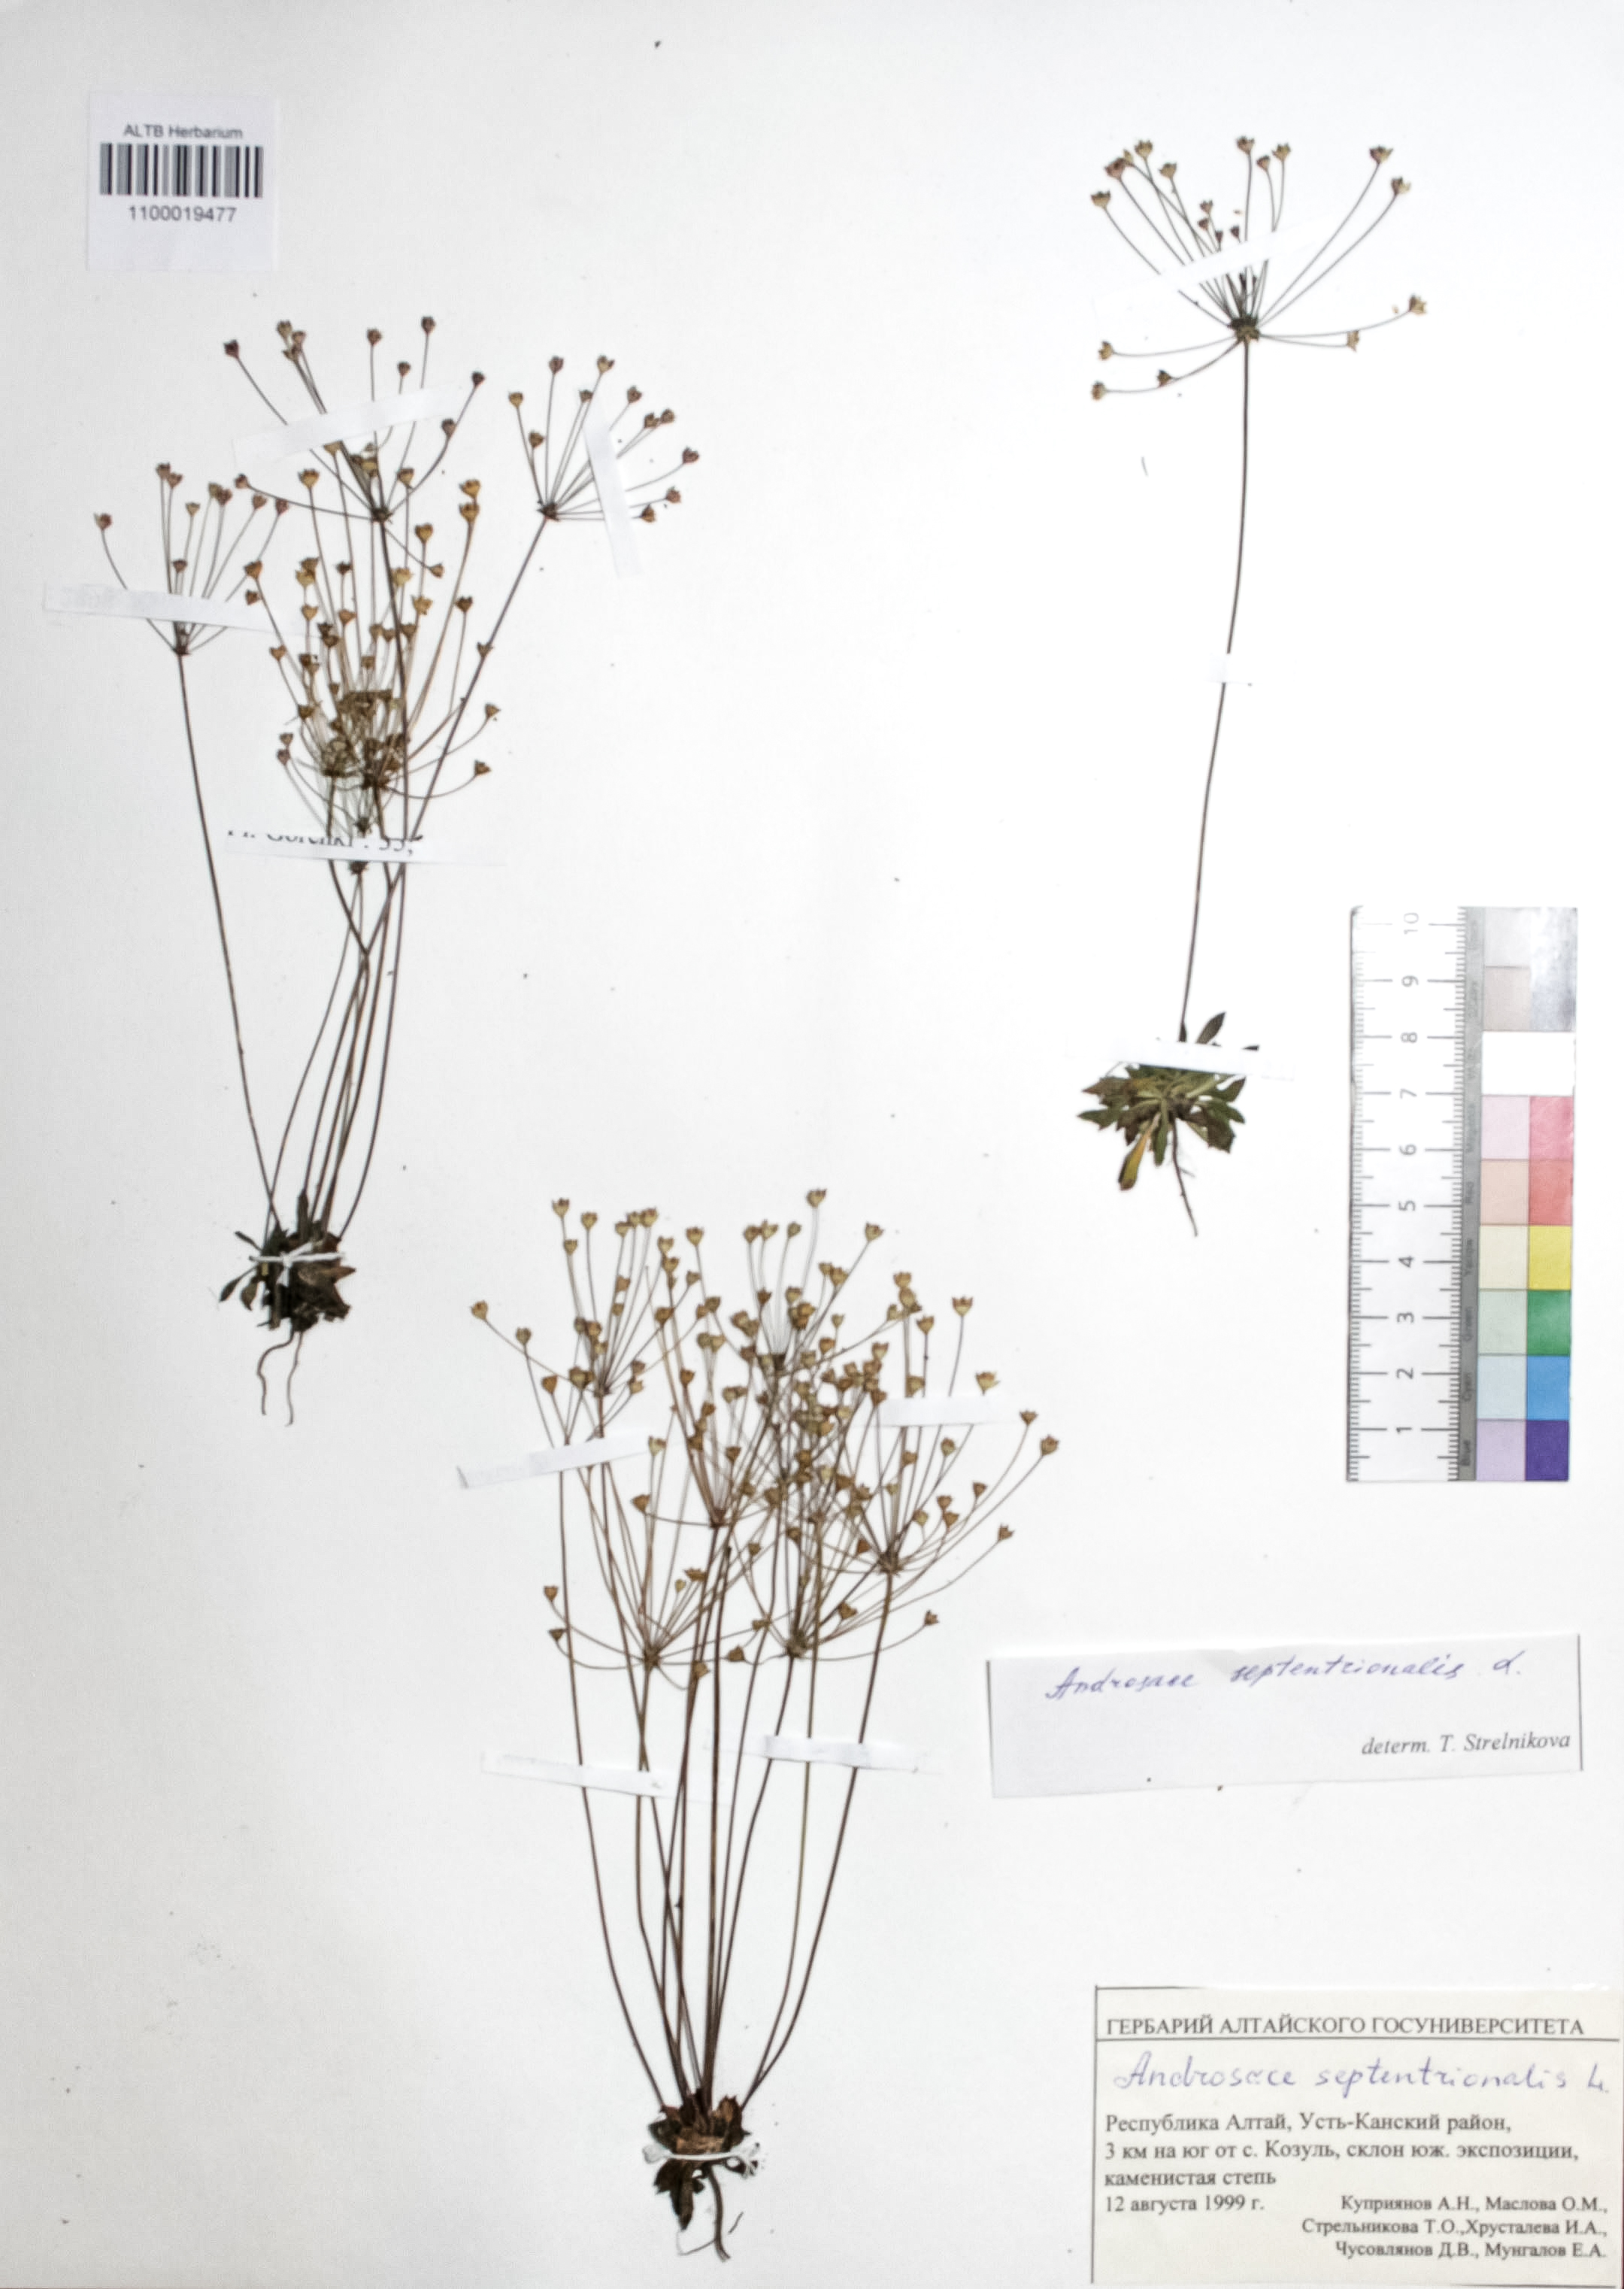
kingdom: Plantae
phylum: Tracheophyta
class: Magnoliopsida
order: Ericales
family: Primulaceae
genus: Androsace
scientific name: Androsace septentrionalis
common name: Hairy northern fairy-candelabra
